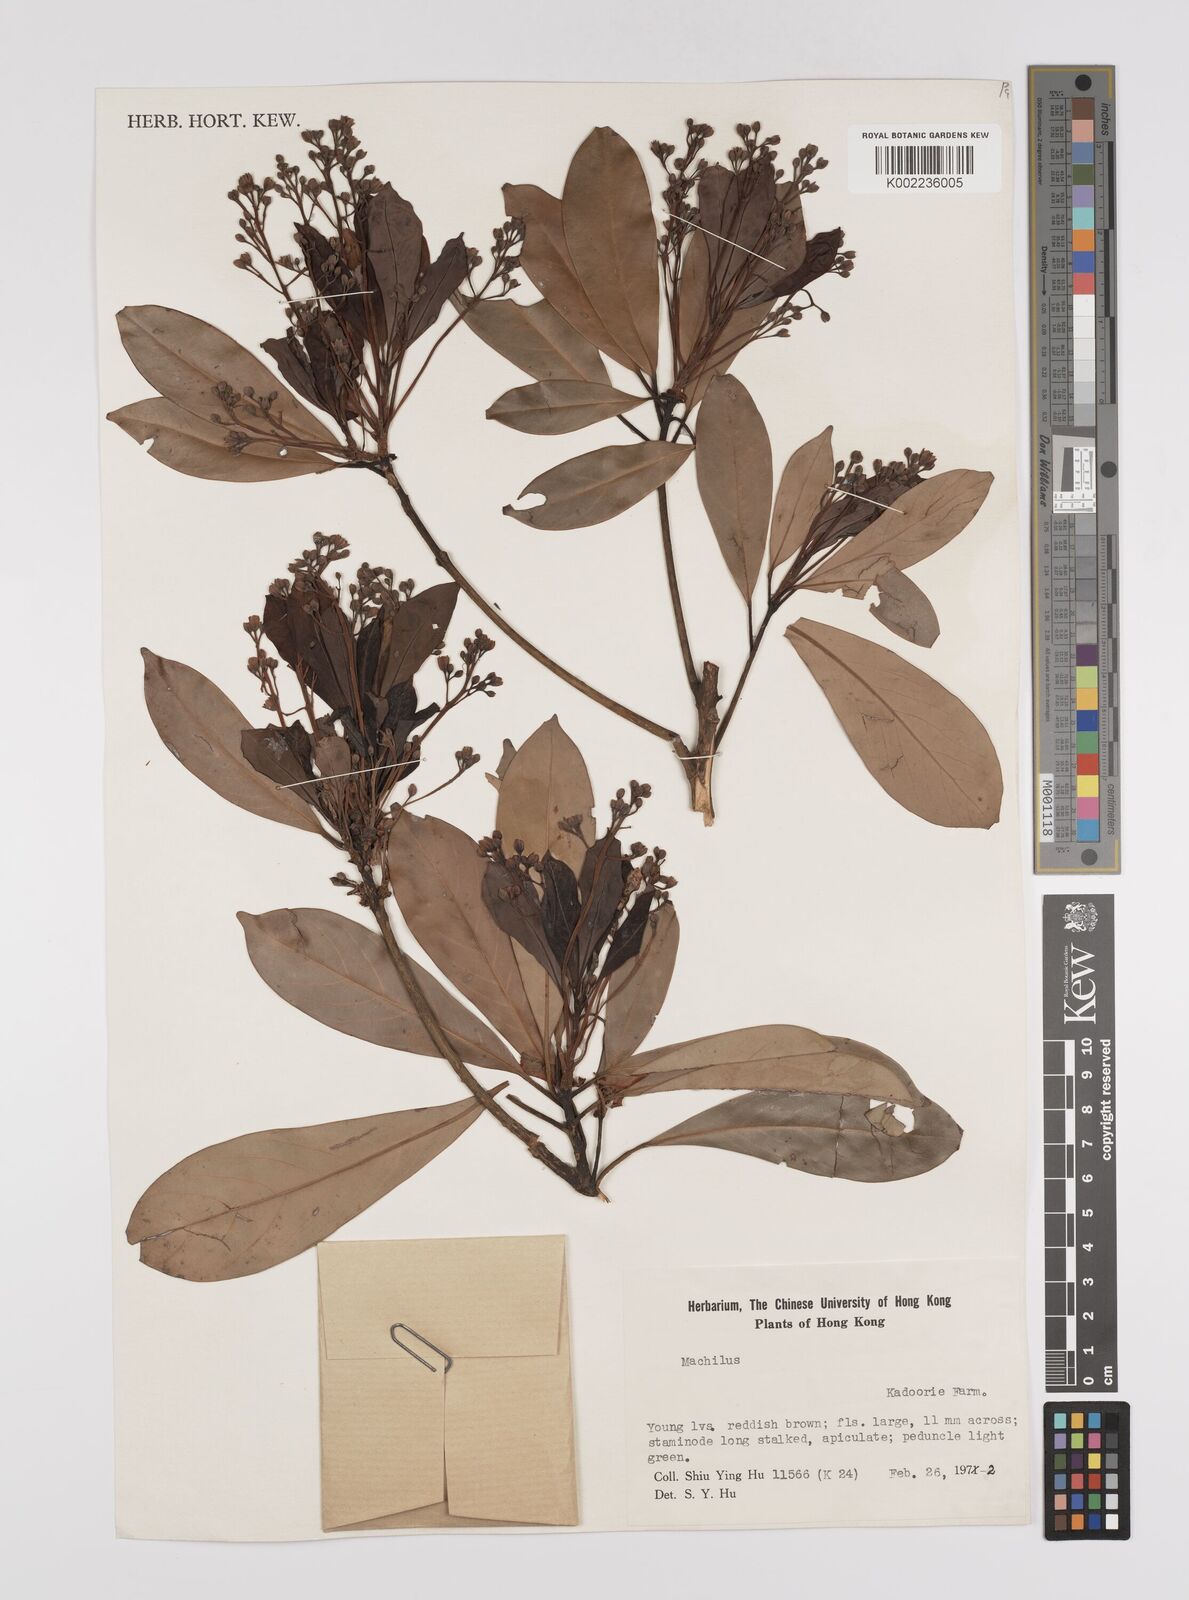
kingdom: Plantae
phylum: Tracheophyta
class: Magnoliopsida
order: Laurales
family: Lauraceae
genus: Persea
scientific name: Persea
